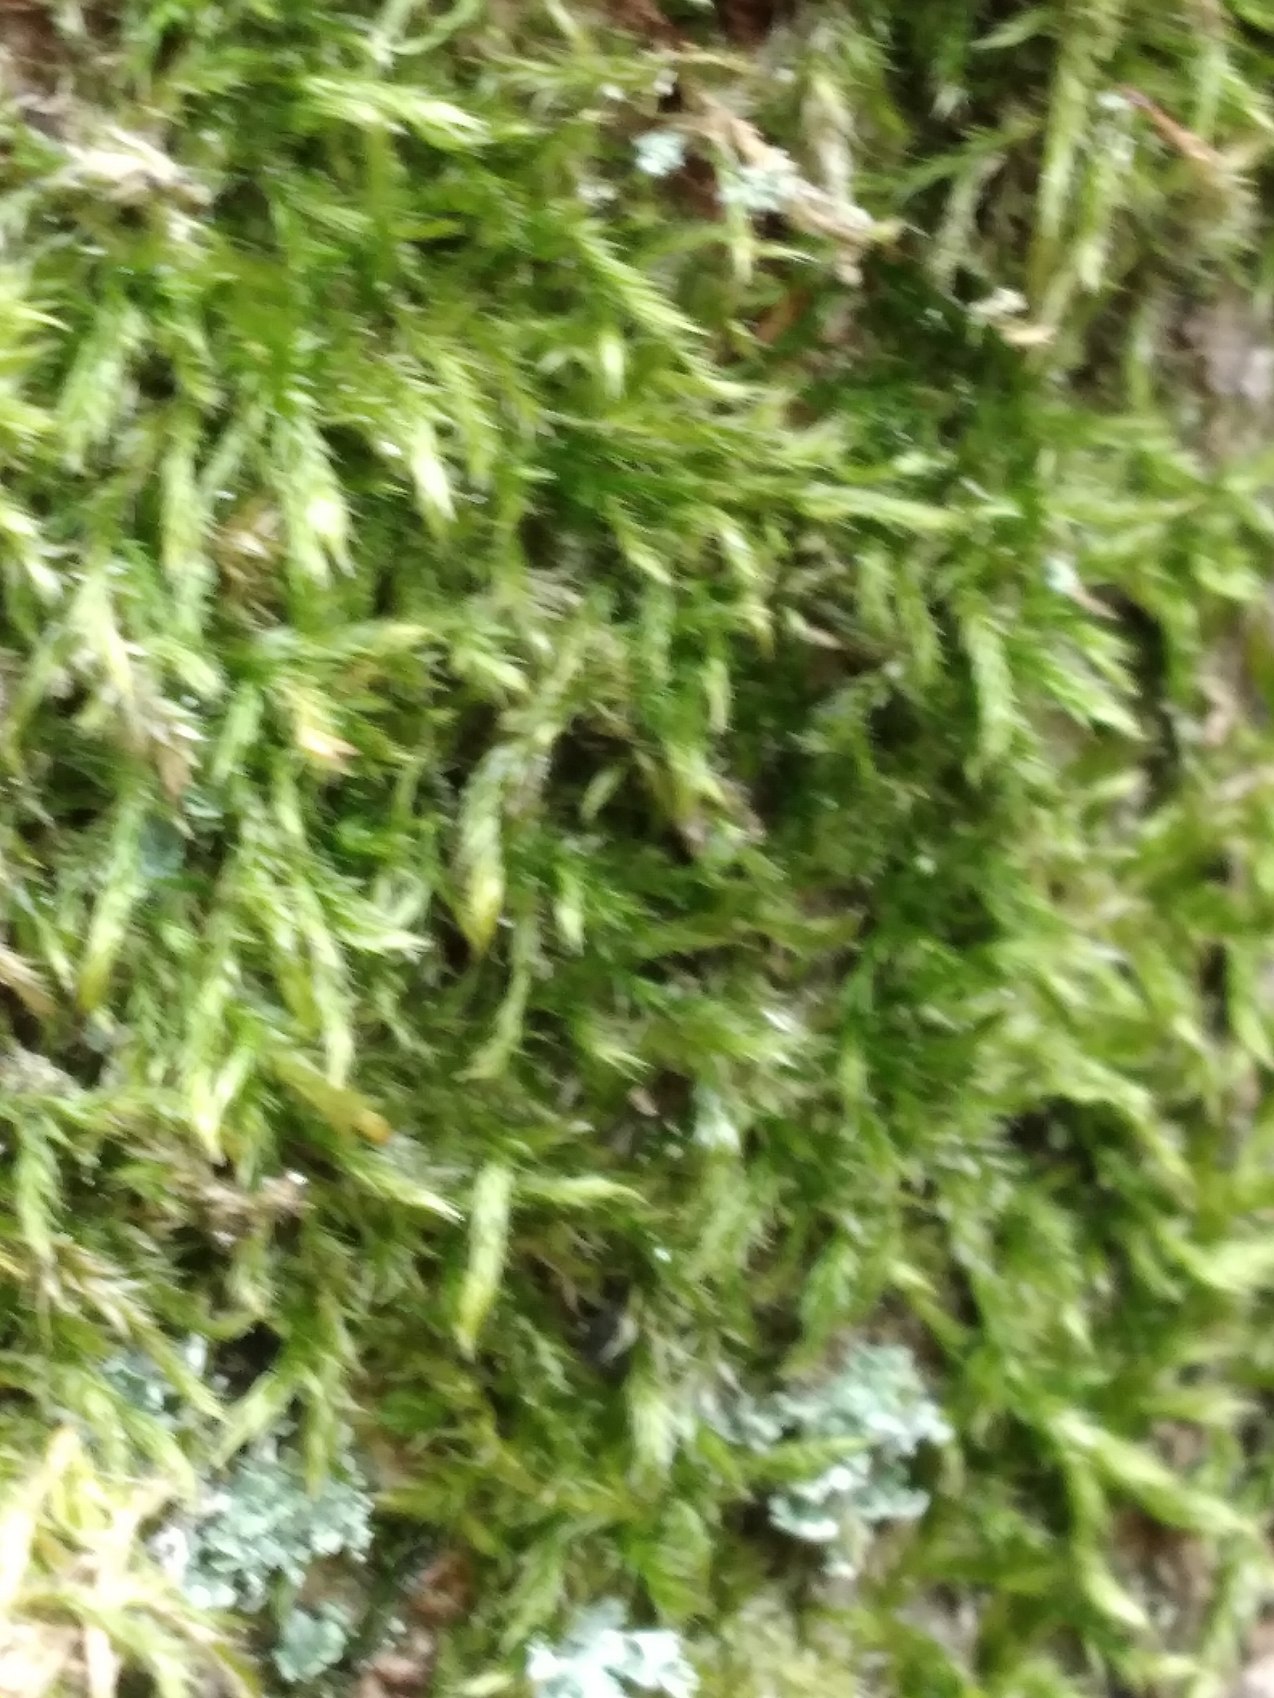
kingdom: Plantae
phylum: Bryophyta
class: Bryopsida
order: Hypnales
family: Hypnaceae
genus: Hypnum
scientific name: Hypnum
